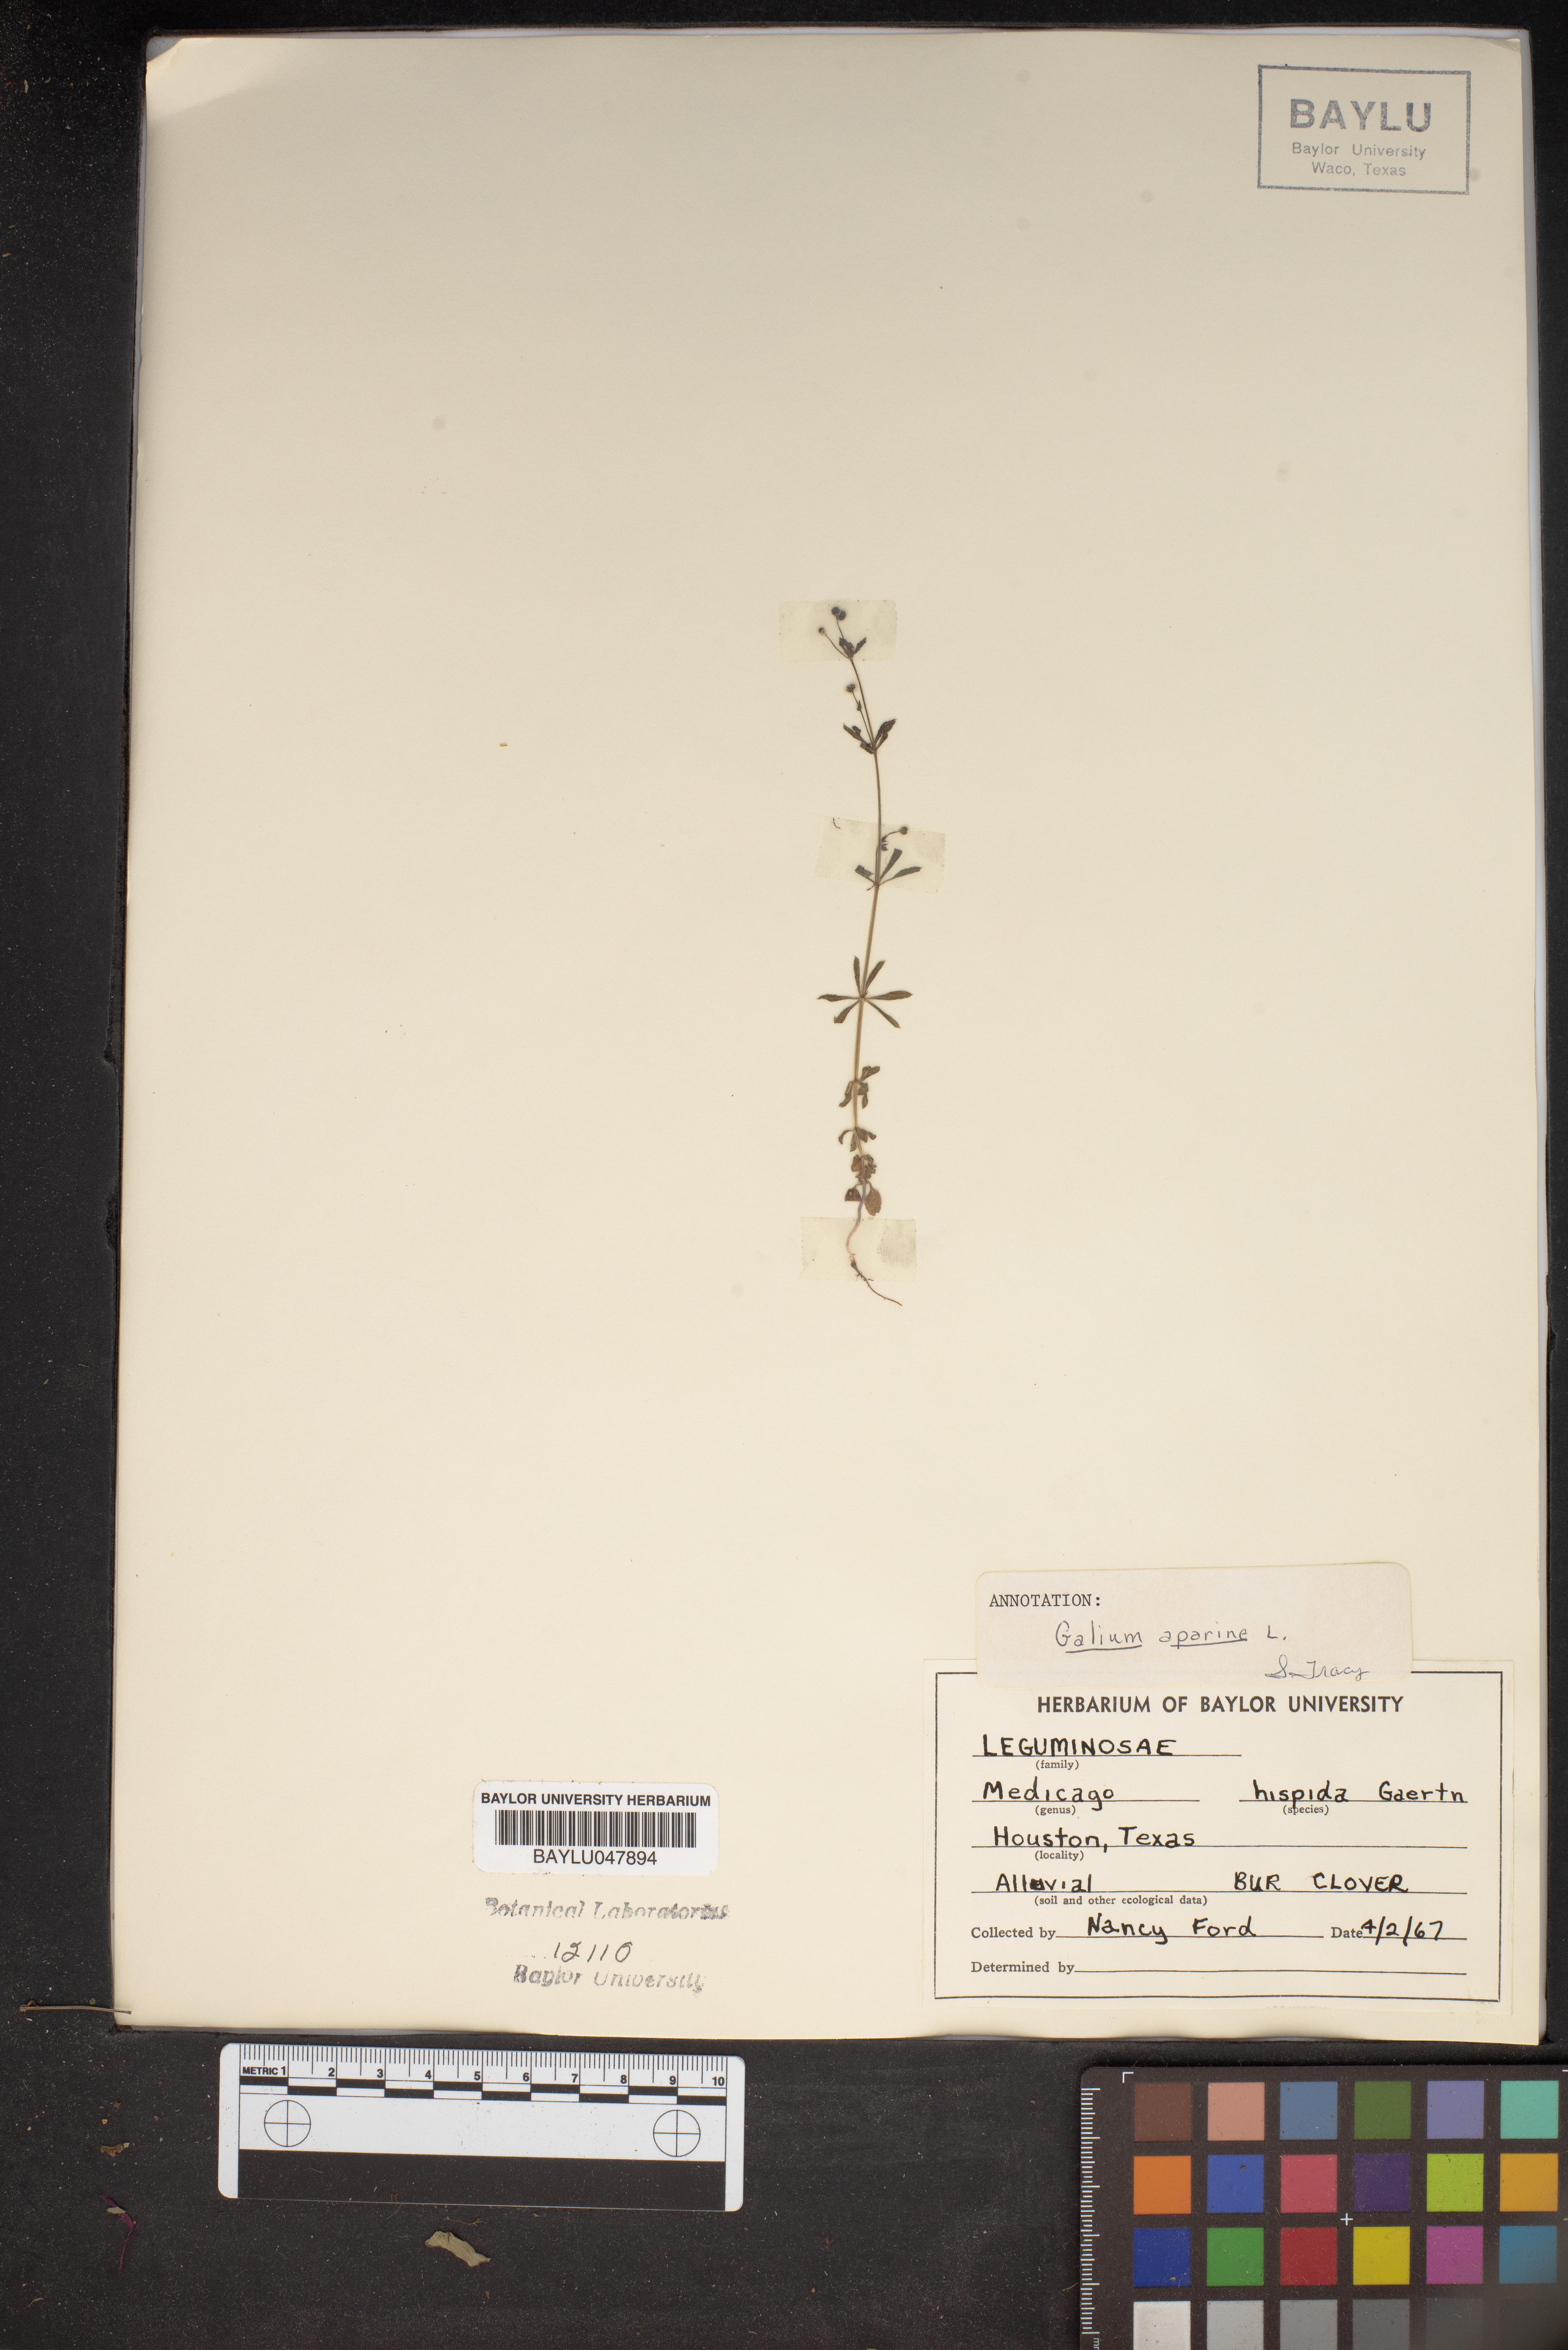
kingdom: Plantae
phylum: Tracheophyta
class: Magnoliopsida
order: Gentianales
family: Rubiaceae
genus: Galium
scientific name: Galium aparine
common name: Cleavers
